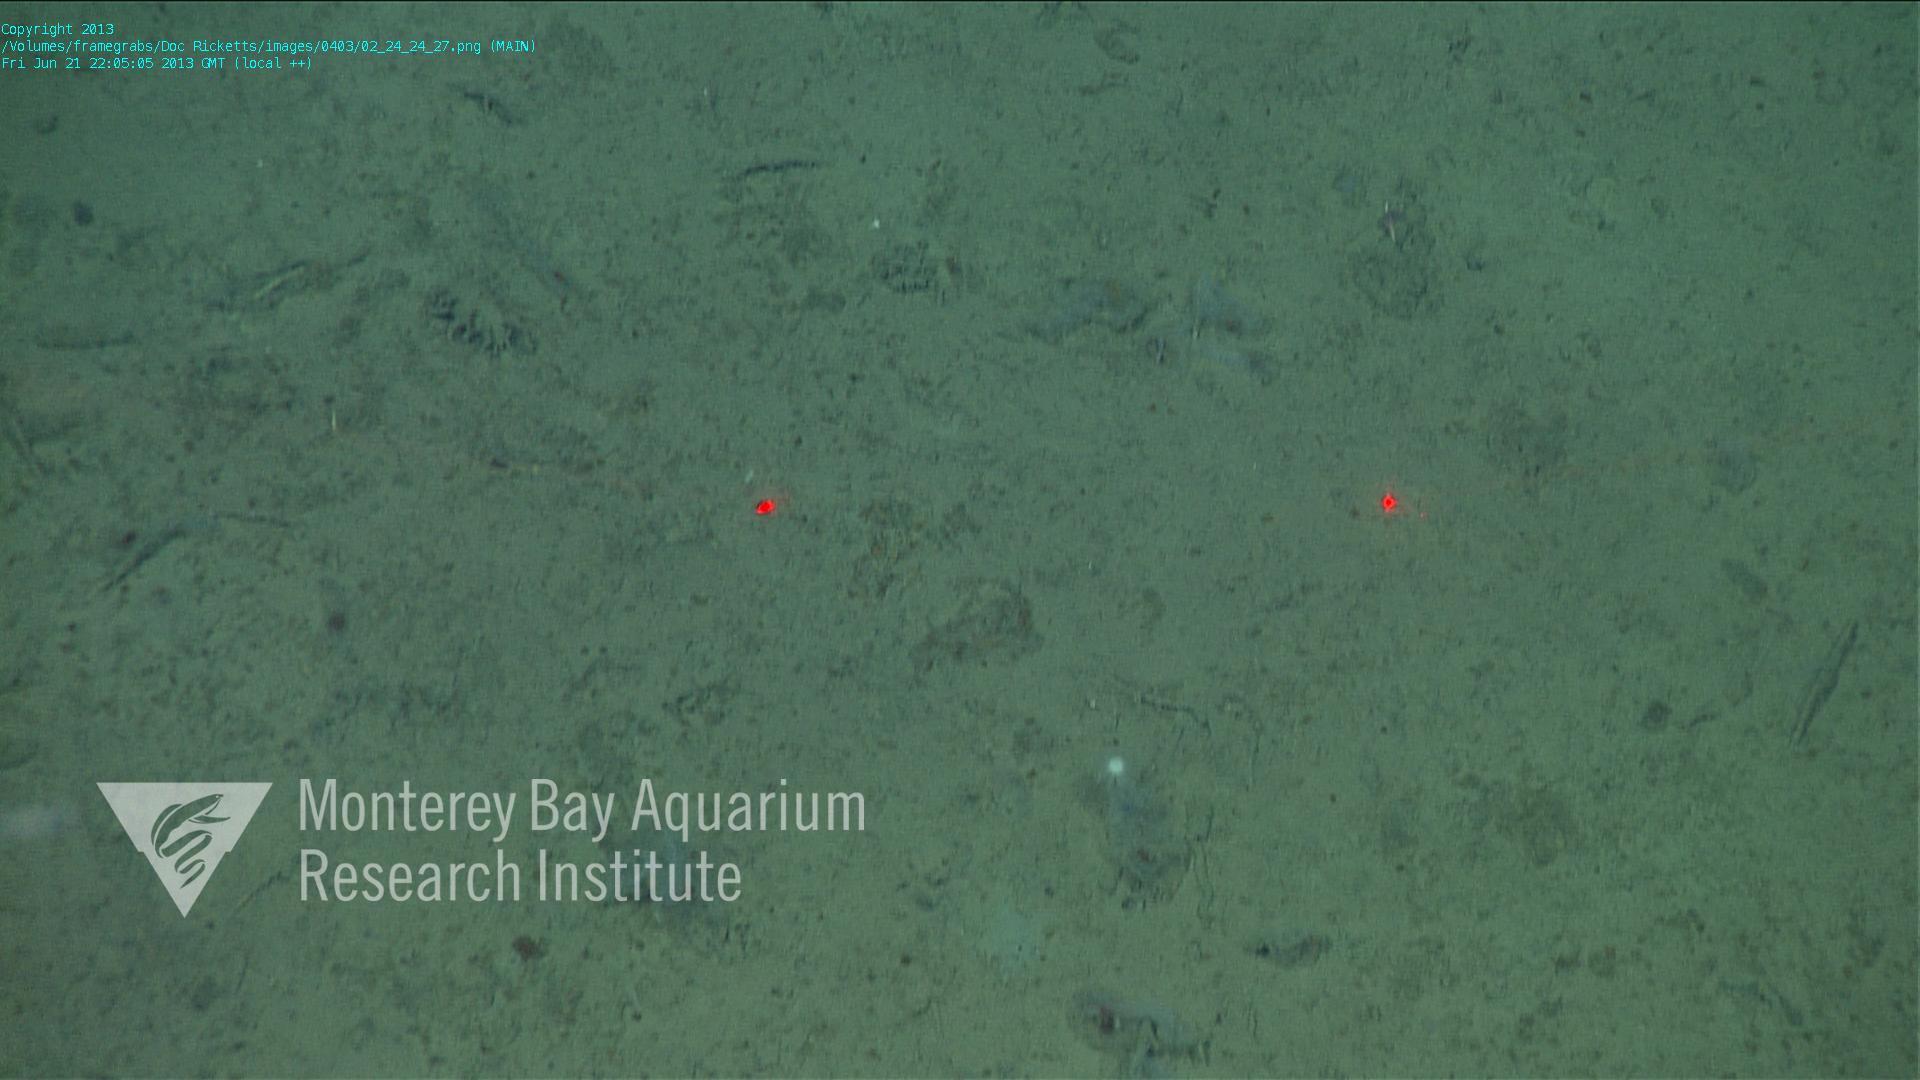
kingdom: Animalia
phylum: Porifera
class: Demospongiae
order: Poecilosclerida
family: Cladorhizidae
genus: Cladorhiza
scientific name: Cladorhiza
